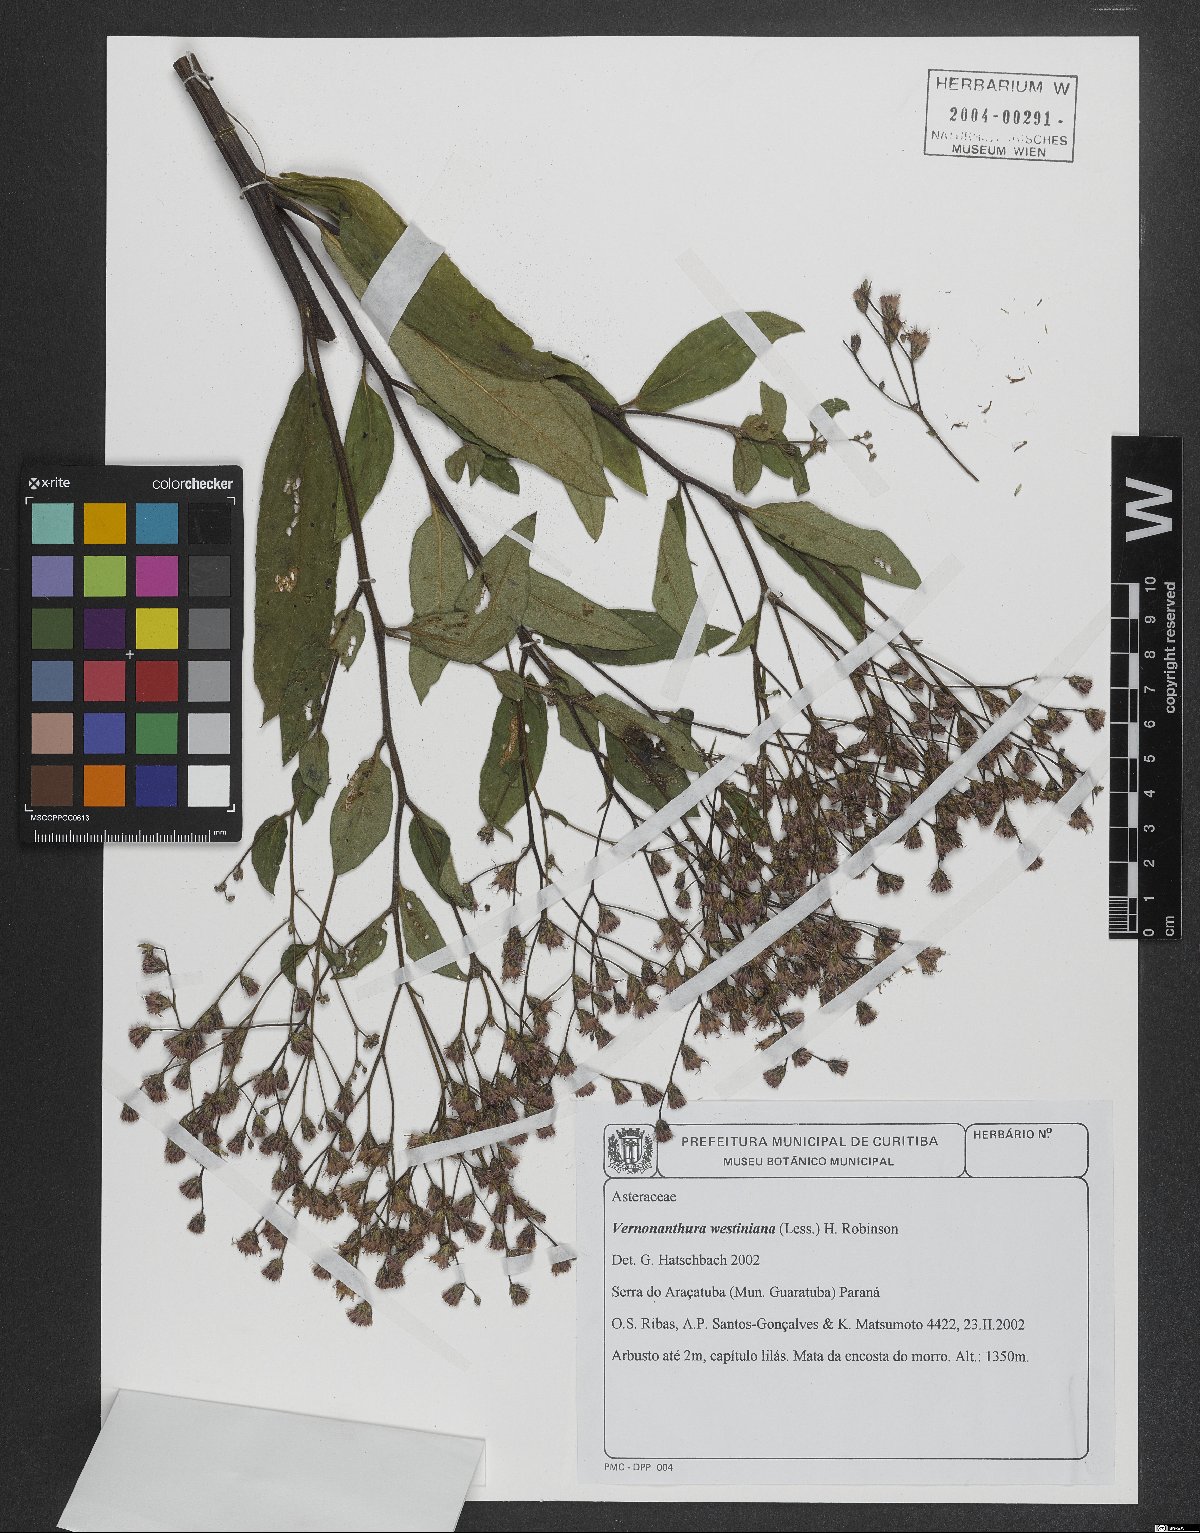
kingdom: Plantae
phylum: Tracheophyta
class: Magnoliopsida
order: Asterales
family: Asteraceae
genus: Vernonanthura
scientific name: Vernonanthura westiniana
